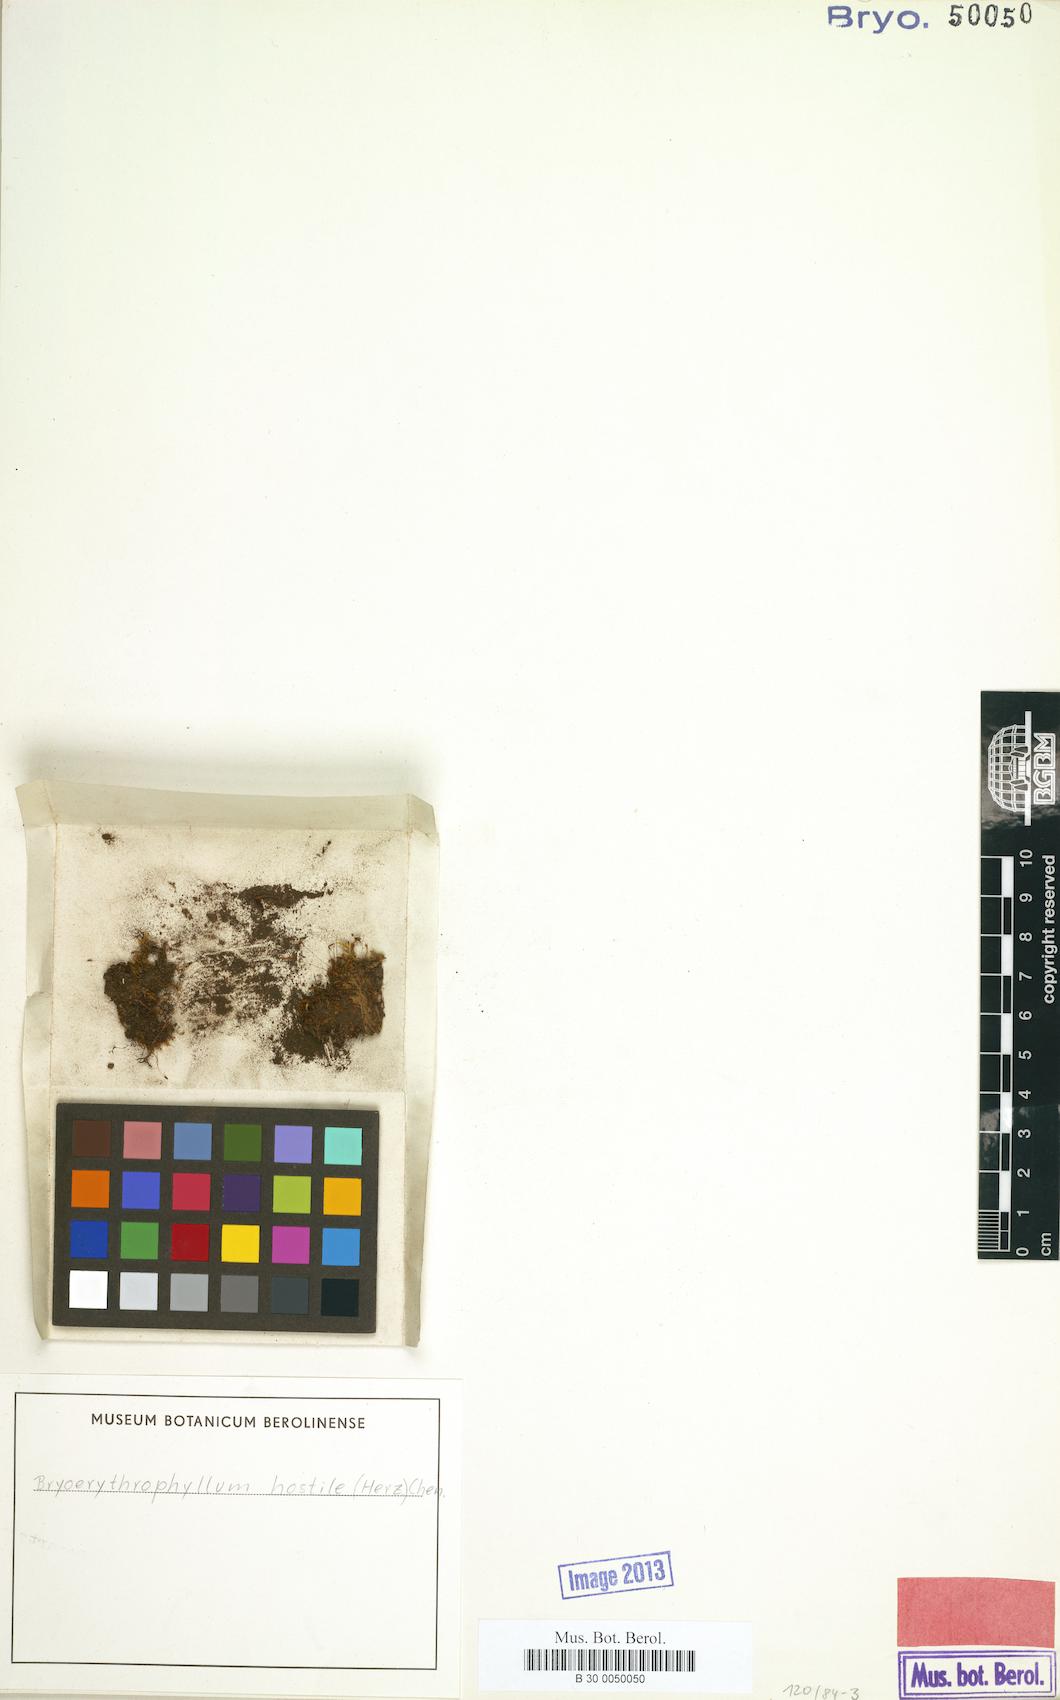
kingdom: Plantae
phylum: Bryophyta
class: Bryopsida
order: Pottiales
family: Pottiaceae
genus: Bryoerythrophyllum
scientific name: Bryoerythrophyllum wallichii
